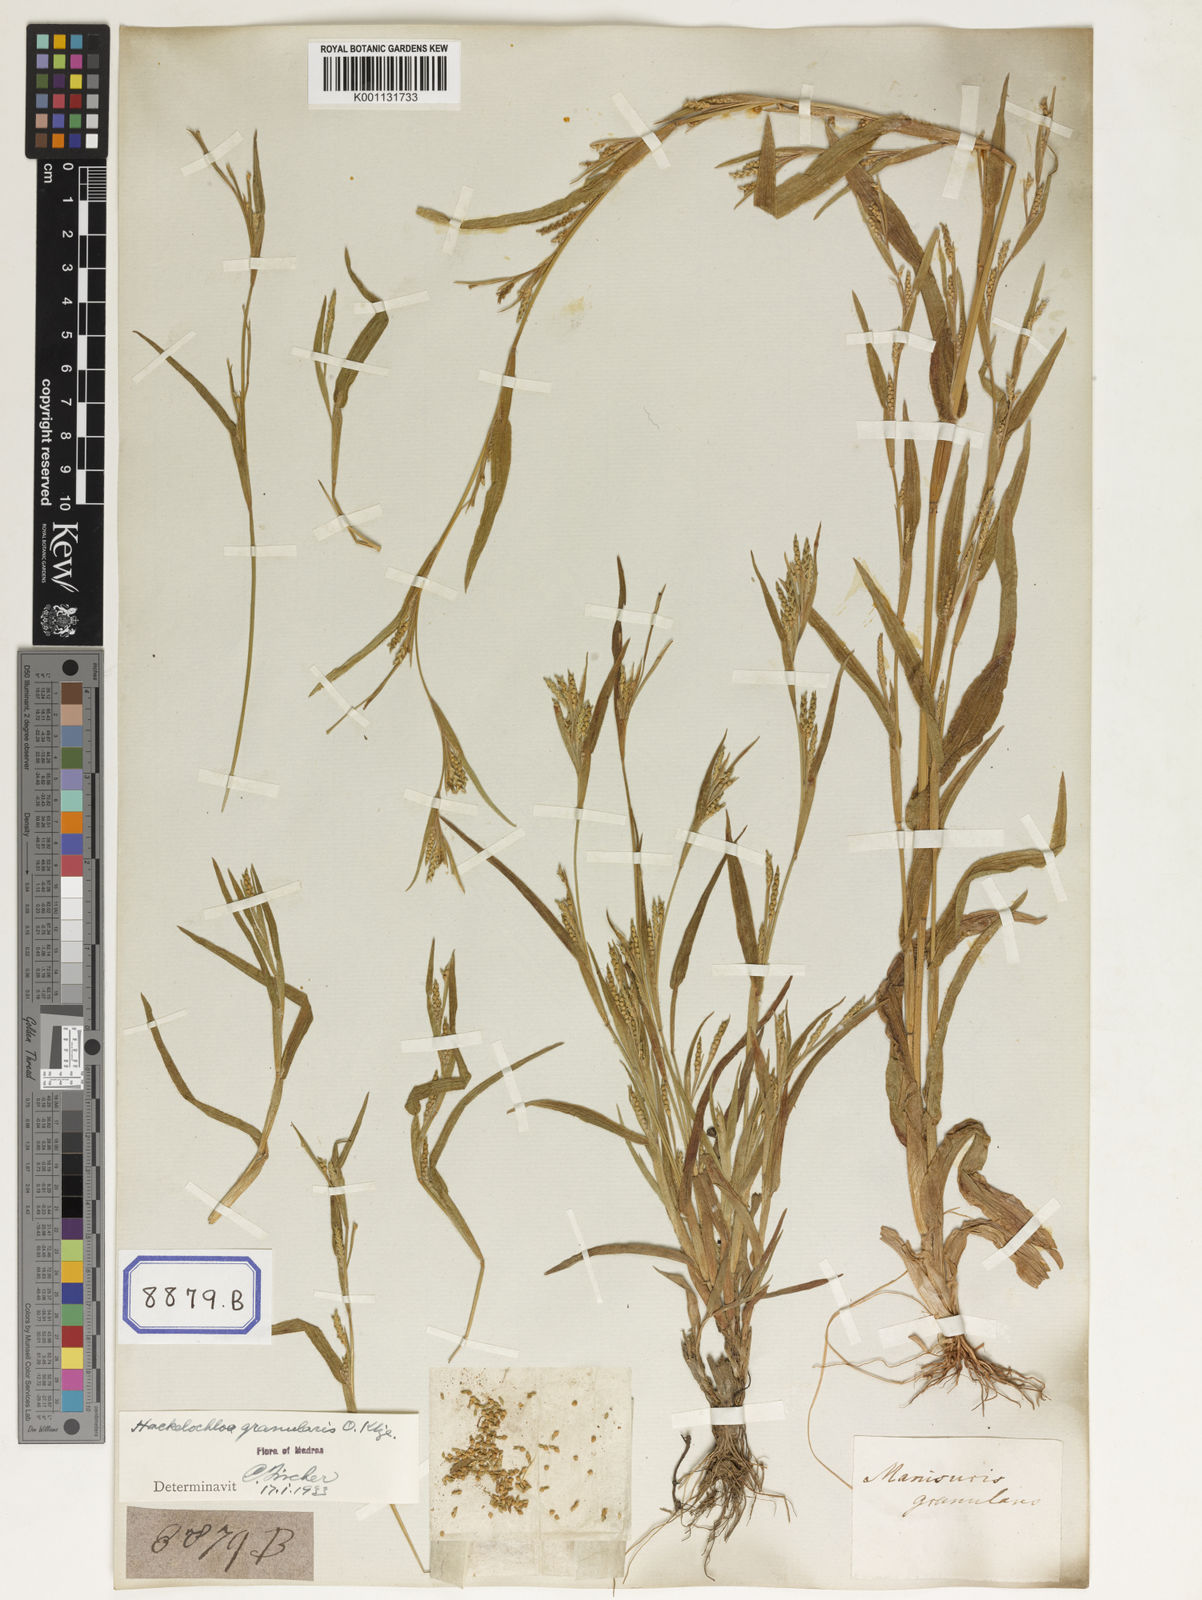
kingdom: Plantae
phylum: Tracheophyta
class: Liliopsida
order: Poales
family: Poaceae
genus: Manisuris
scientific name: Manisuris
